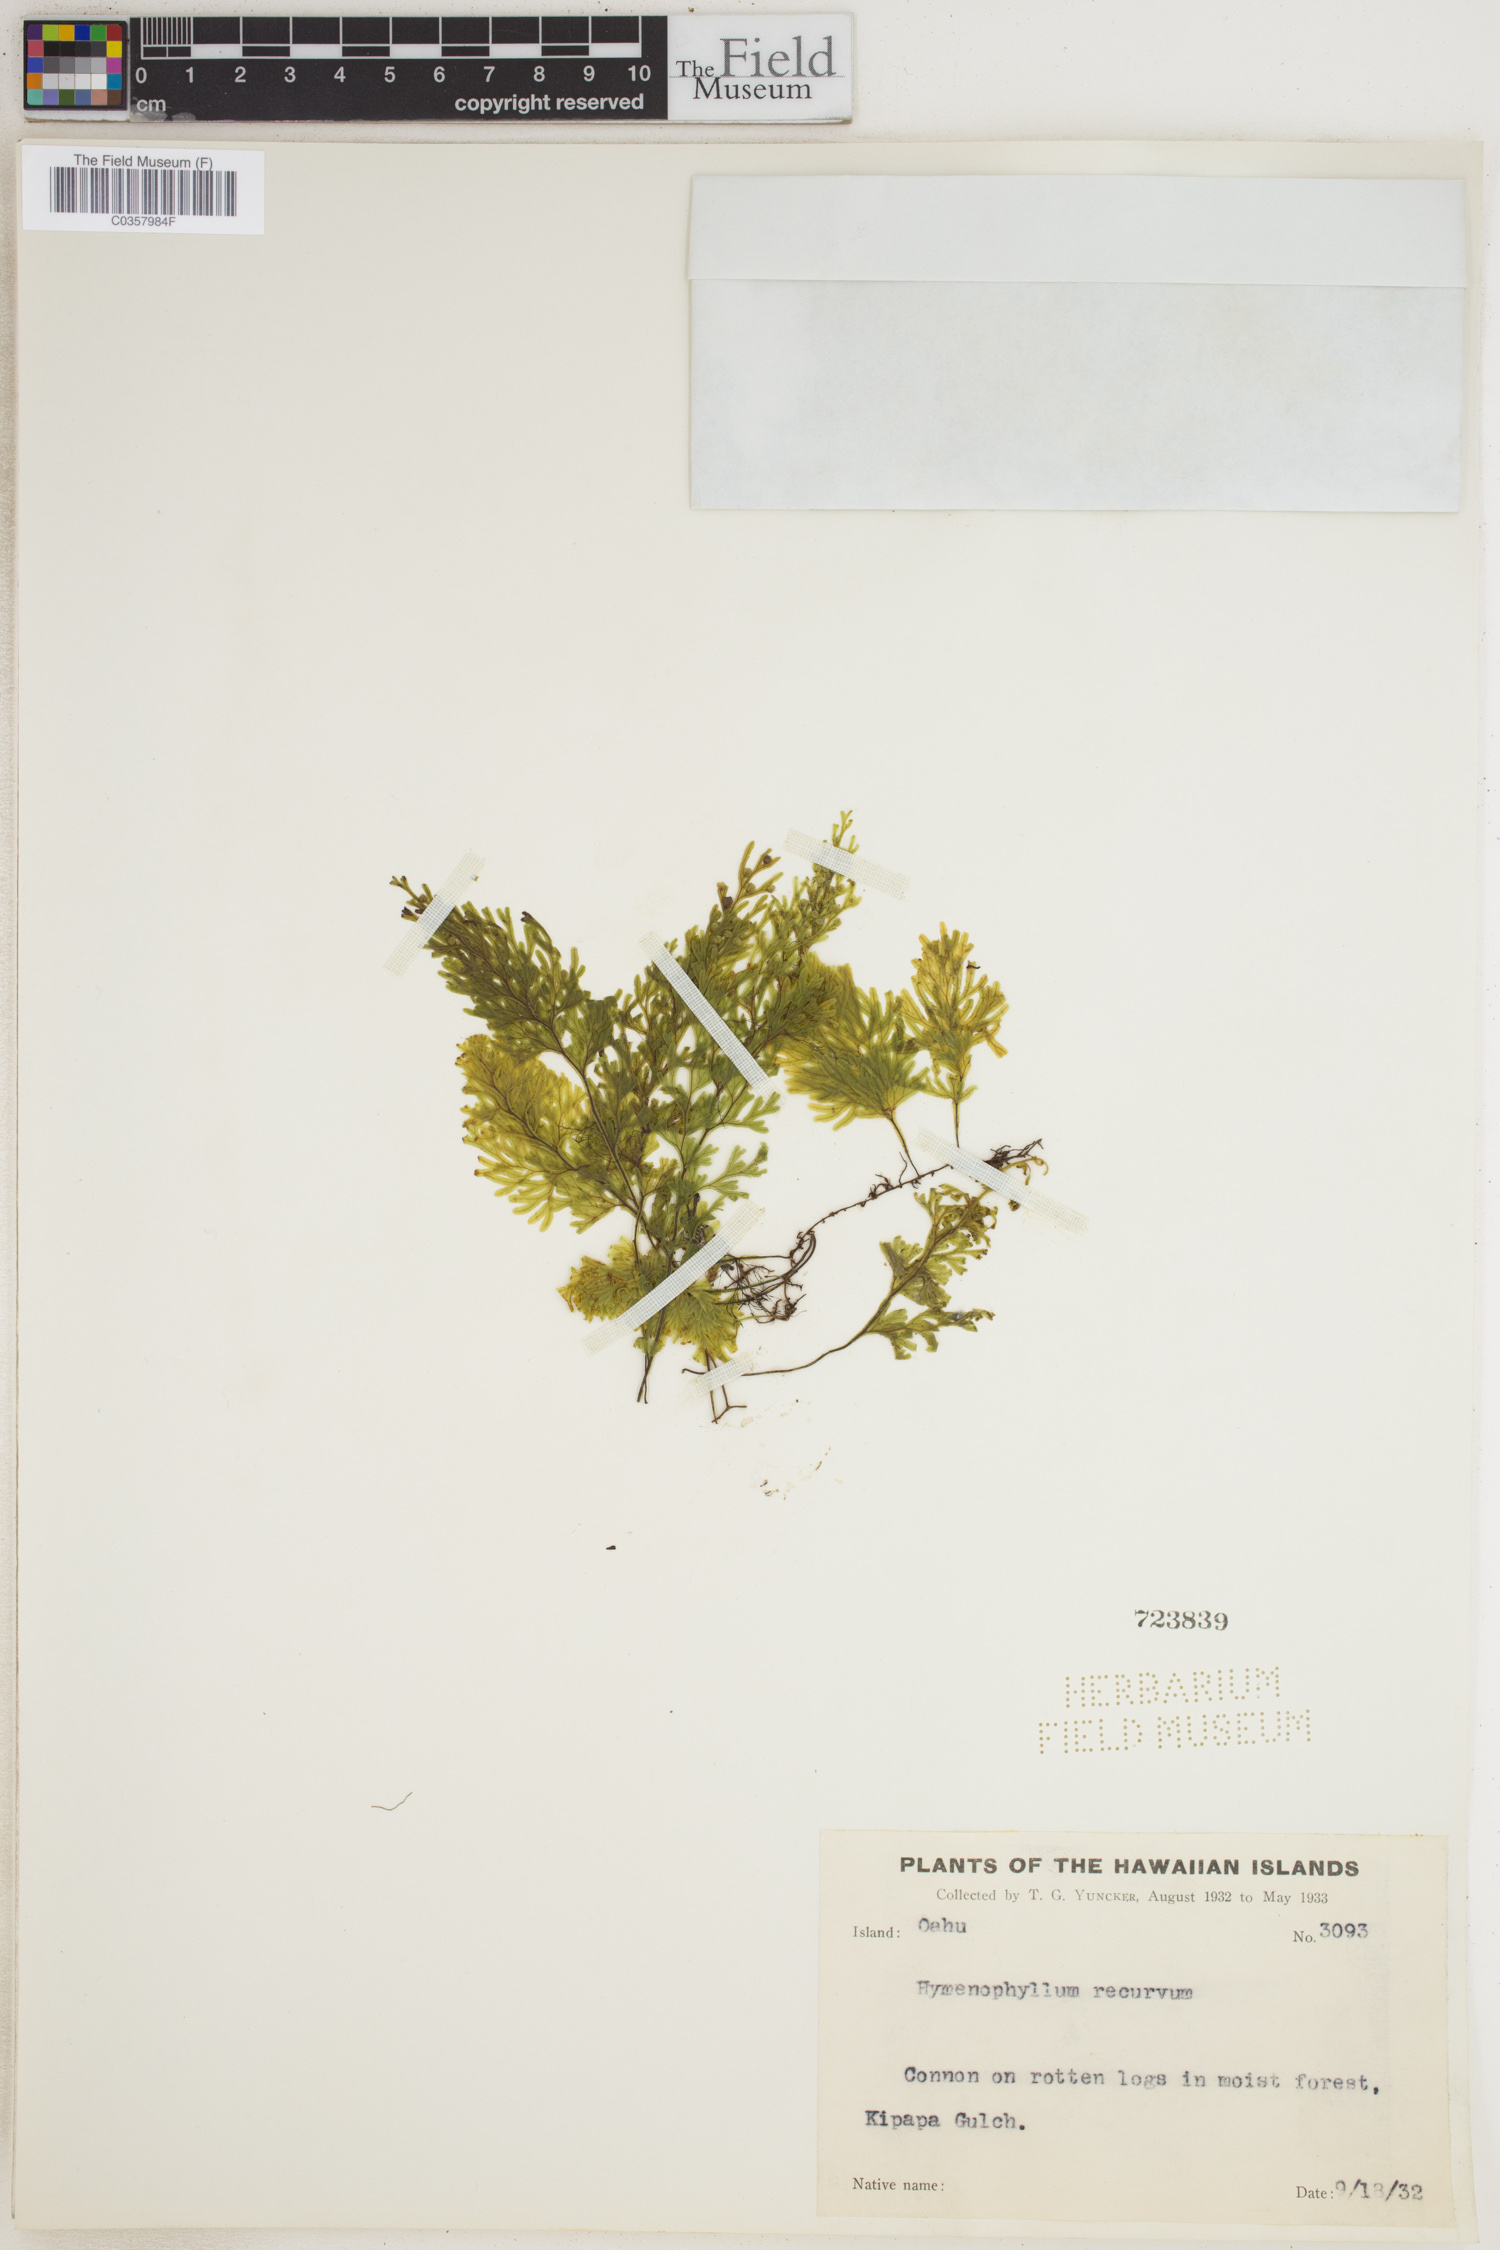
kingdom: Plantae
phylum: Tracheophyta
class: Polypodiopsida
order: Hymenophyllales
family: Hymenophyllaceae
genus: Hymenophyllum
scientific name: Hymenophyllum recurvum
